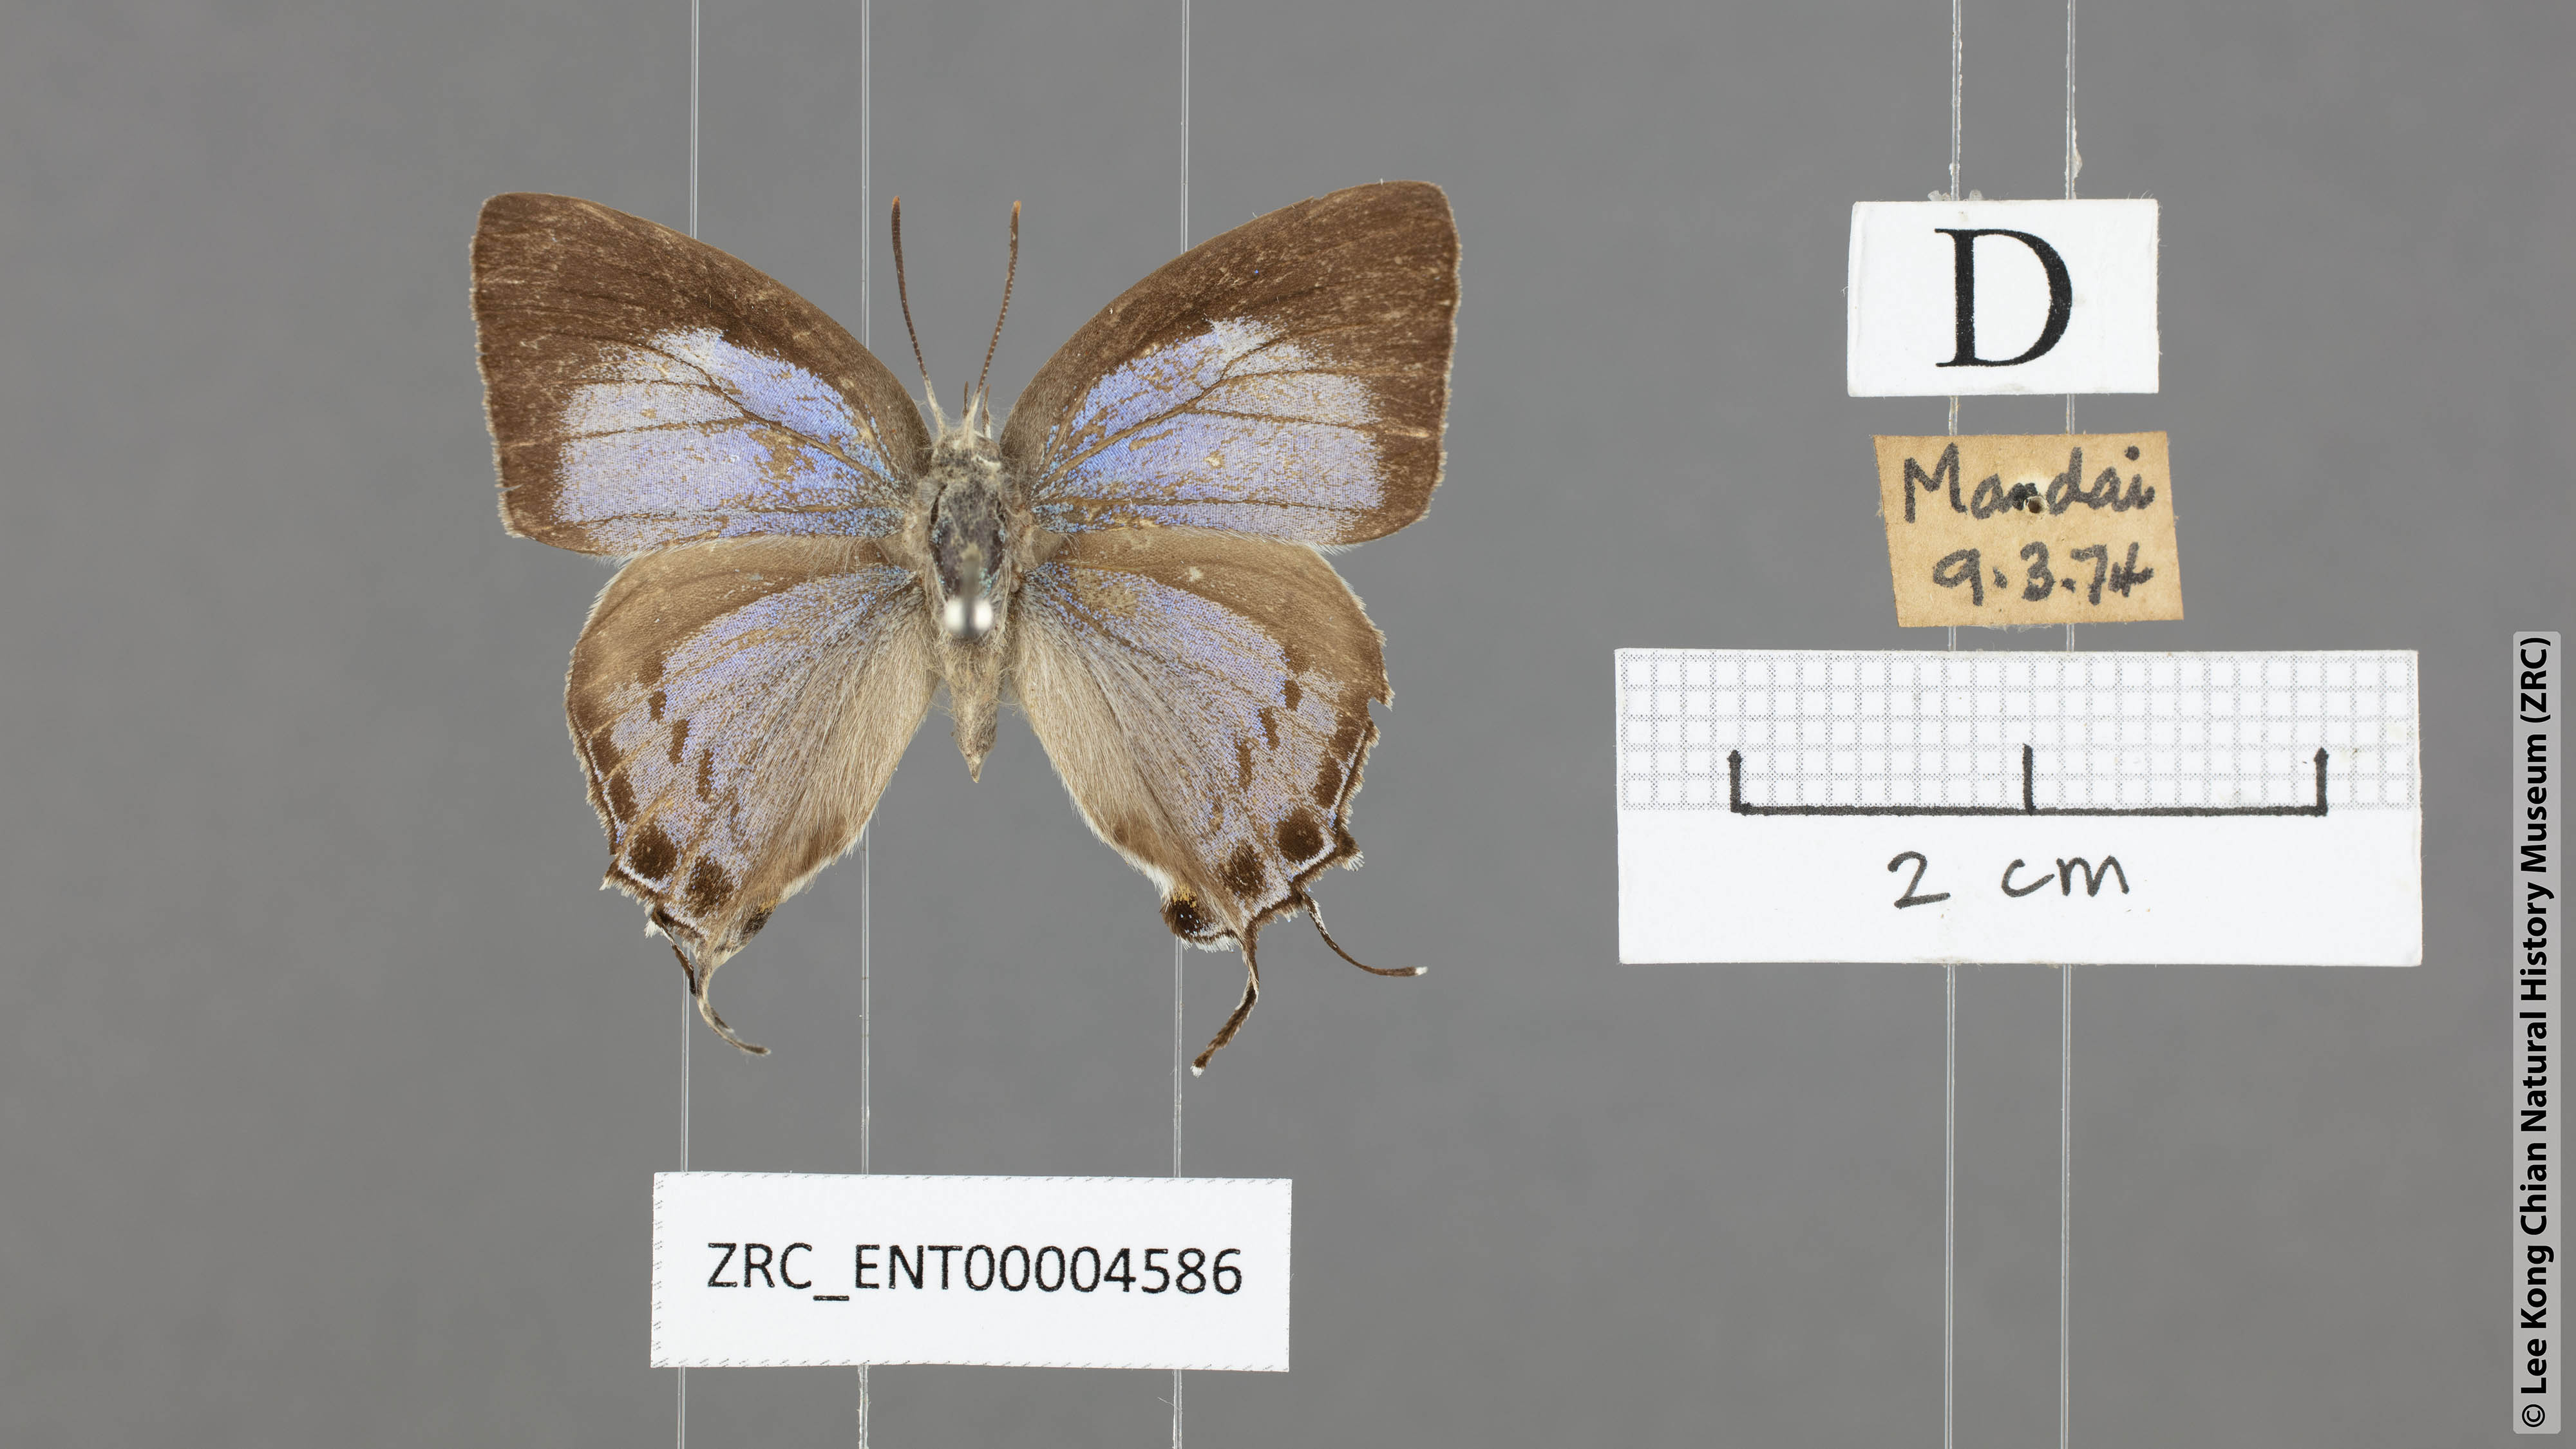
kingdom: Animalia
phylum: Arthropoda
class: Insecta
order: Lepidoptera
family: Lycaenidae
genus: Tajuria
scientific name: Tajuria cippus
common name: Peacock royal
